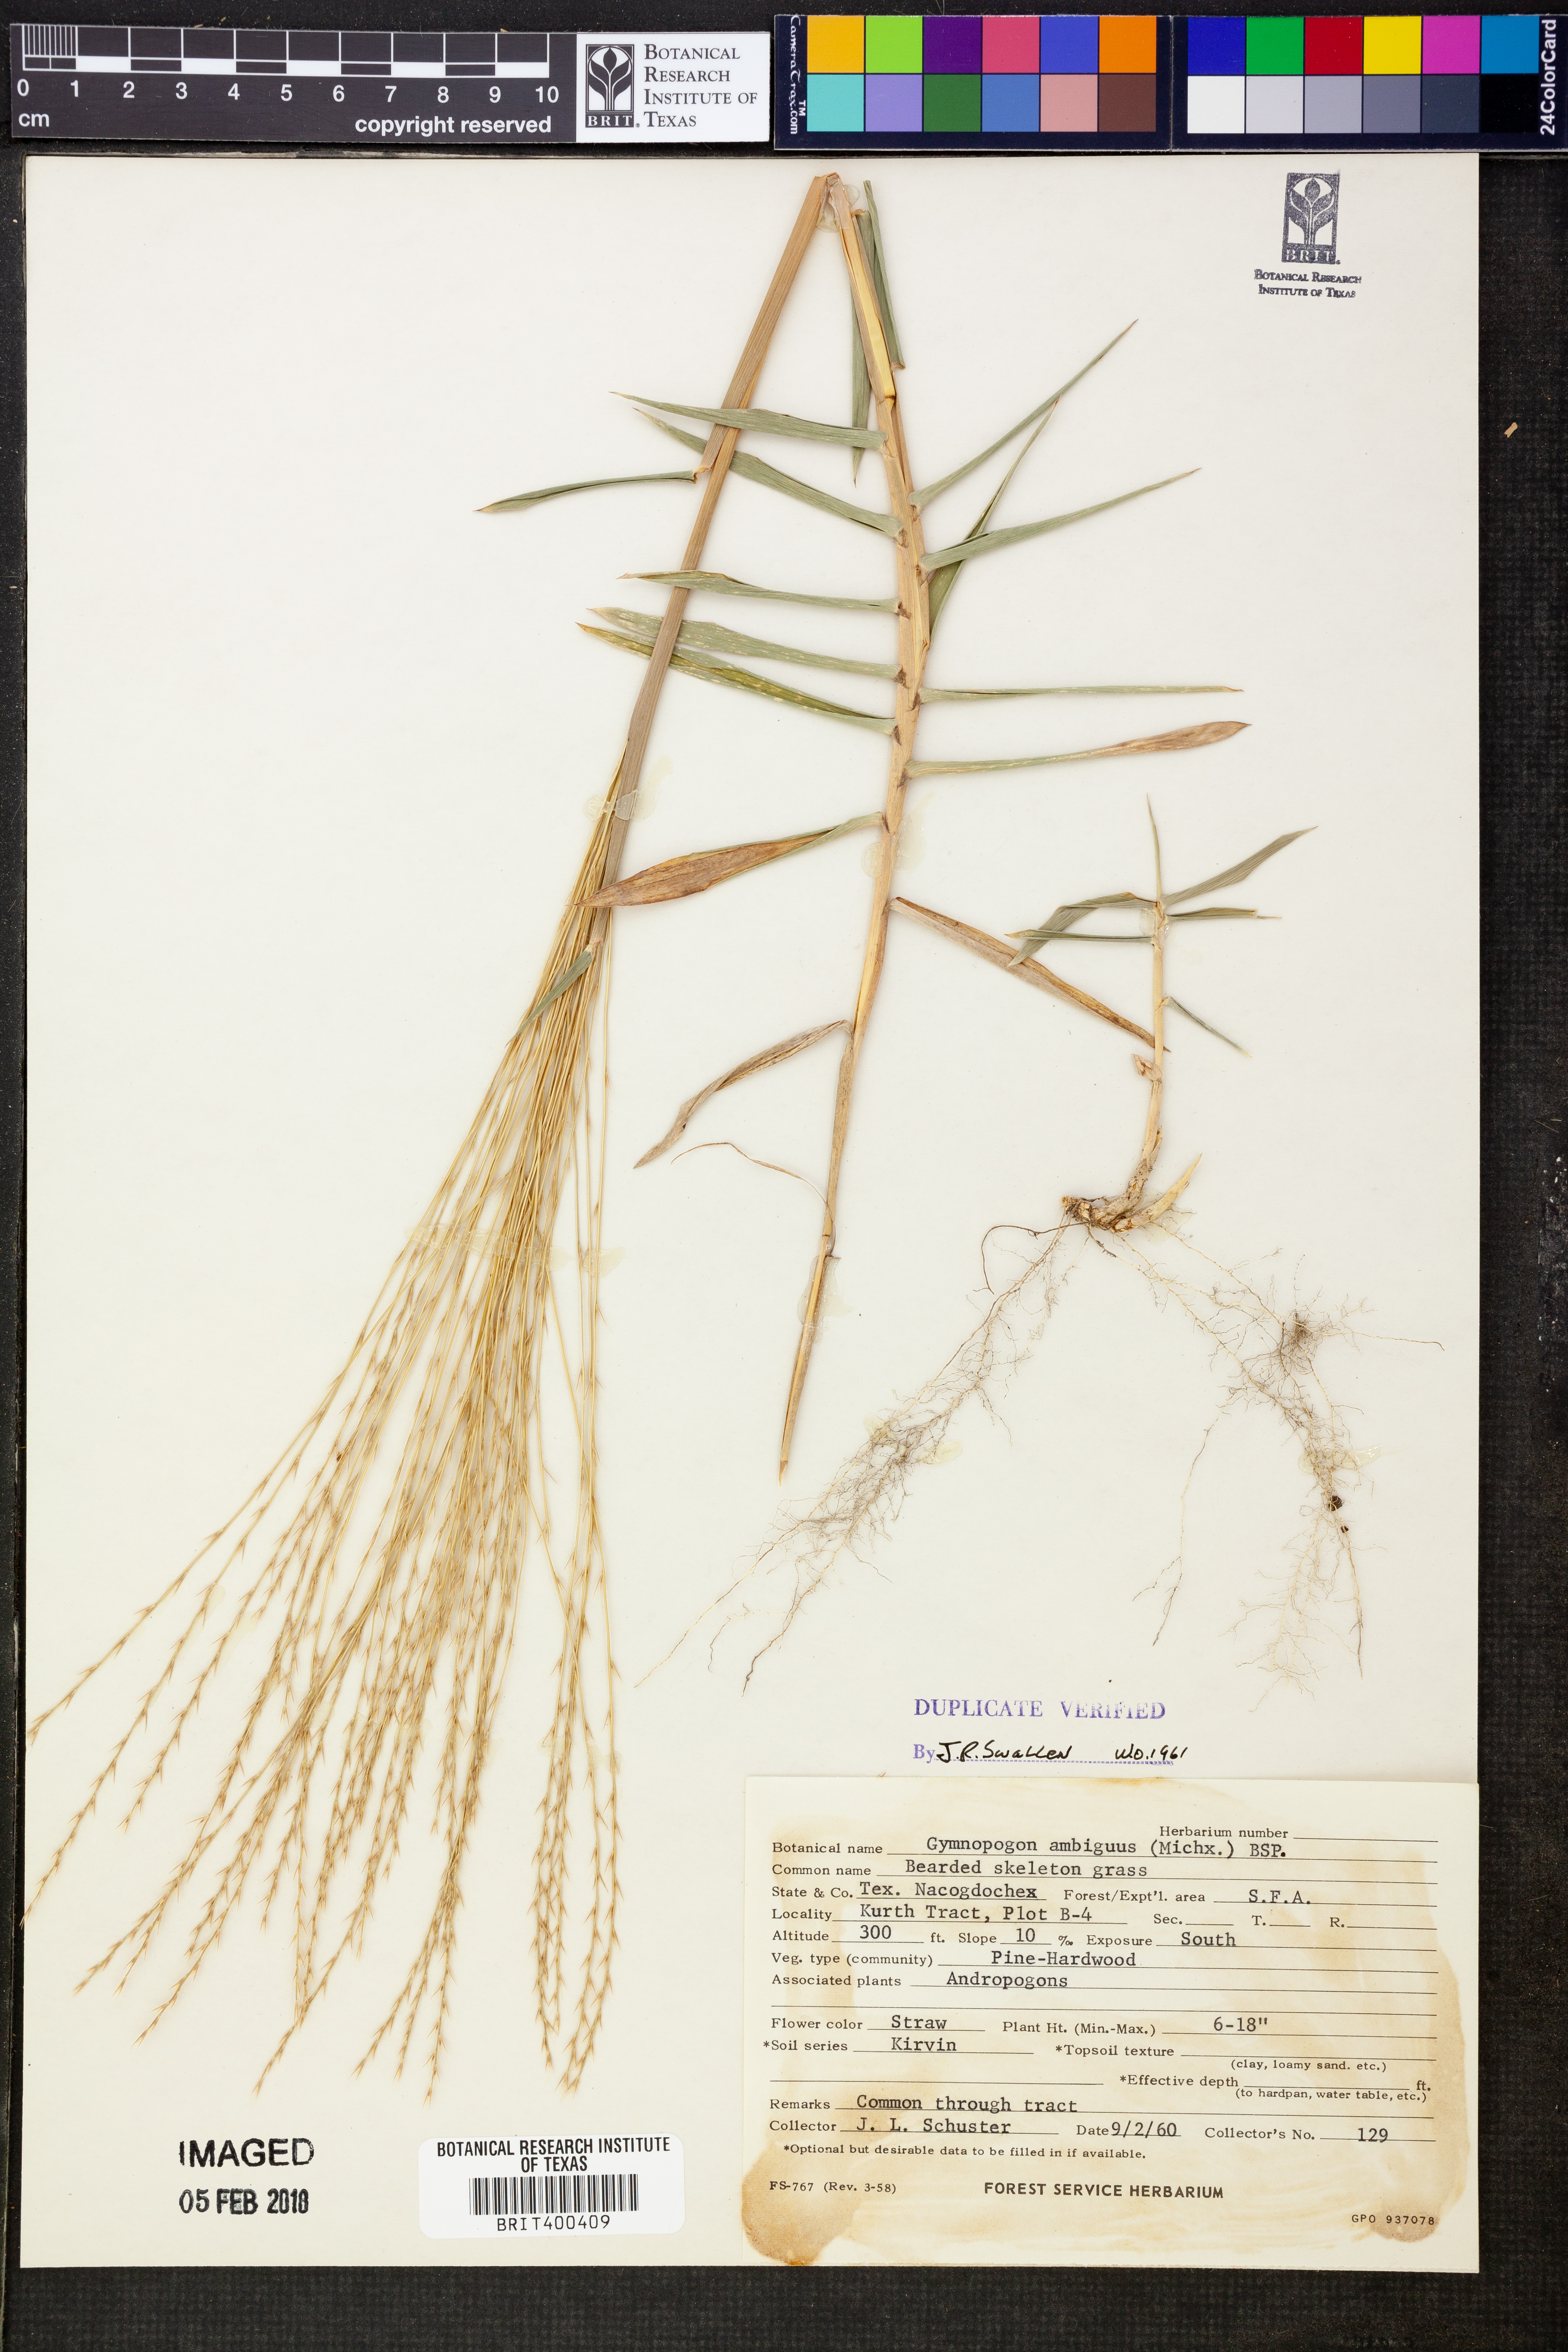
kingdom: Plantae
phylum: Tracheophyta
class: Liliopsida
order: Poales
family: Poaceae
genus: Gymnopogon
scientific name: Gymnopogon ambiguus
